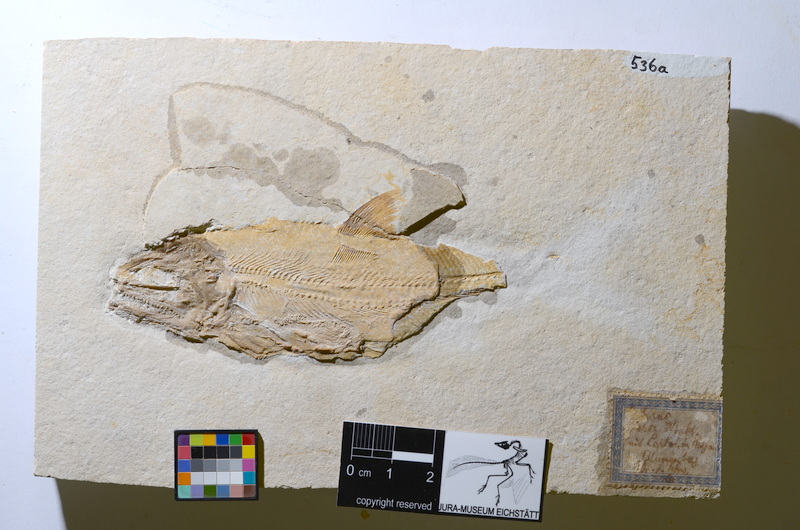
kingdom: Animalia
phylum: Chordata
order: Amiiformes
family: Caturidae
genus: Caturus
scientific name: Caturus furcatus
